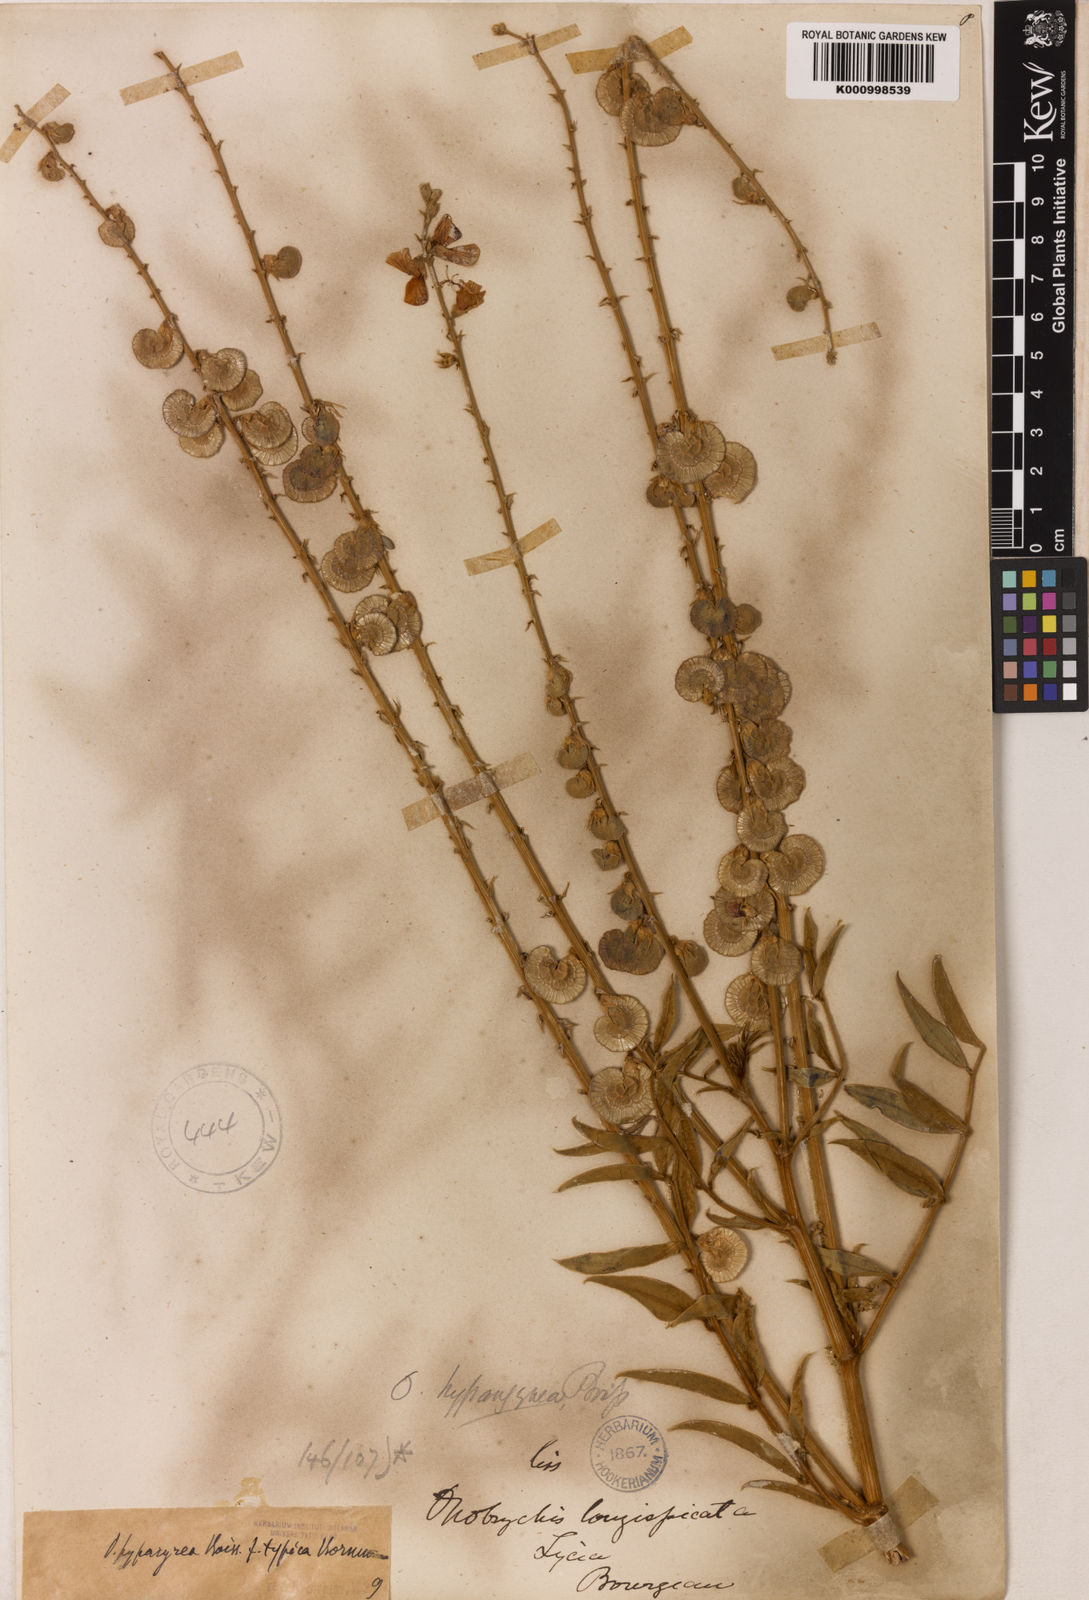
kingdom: Plantae
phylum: Tracheophyta
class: Magnoliopsida
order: Fabales
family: Fabaceae
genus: Onobrychis
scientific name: Onobrychis hypargyrea
